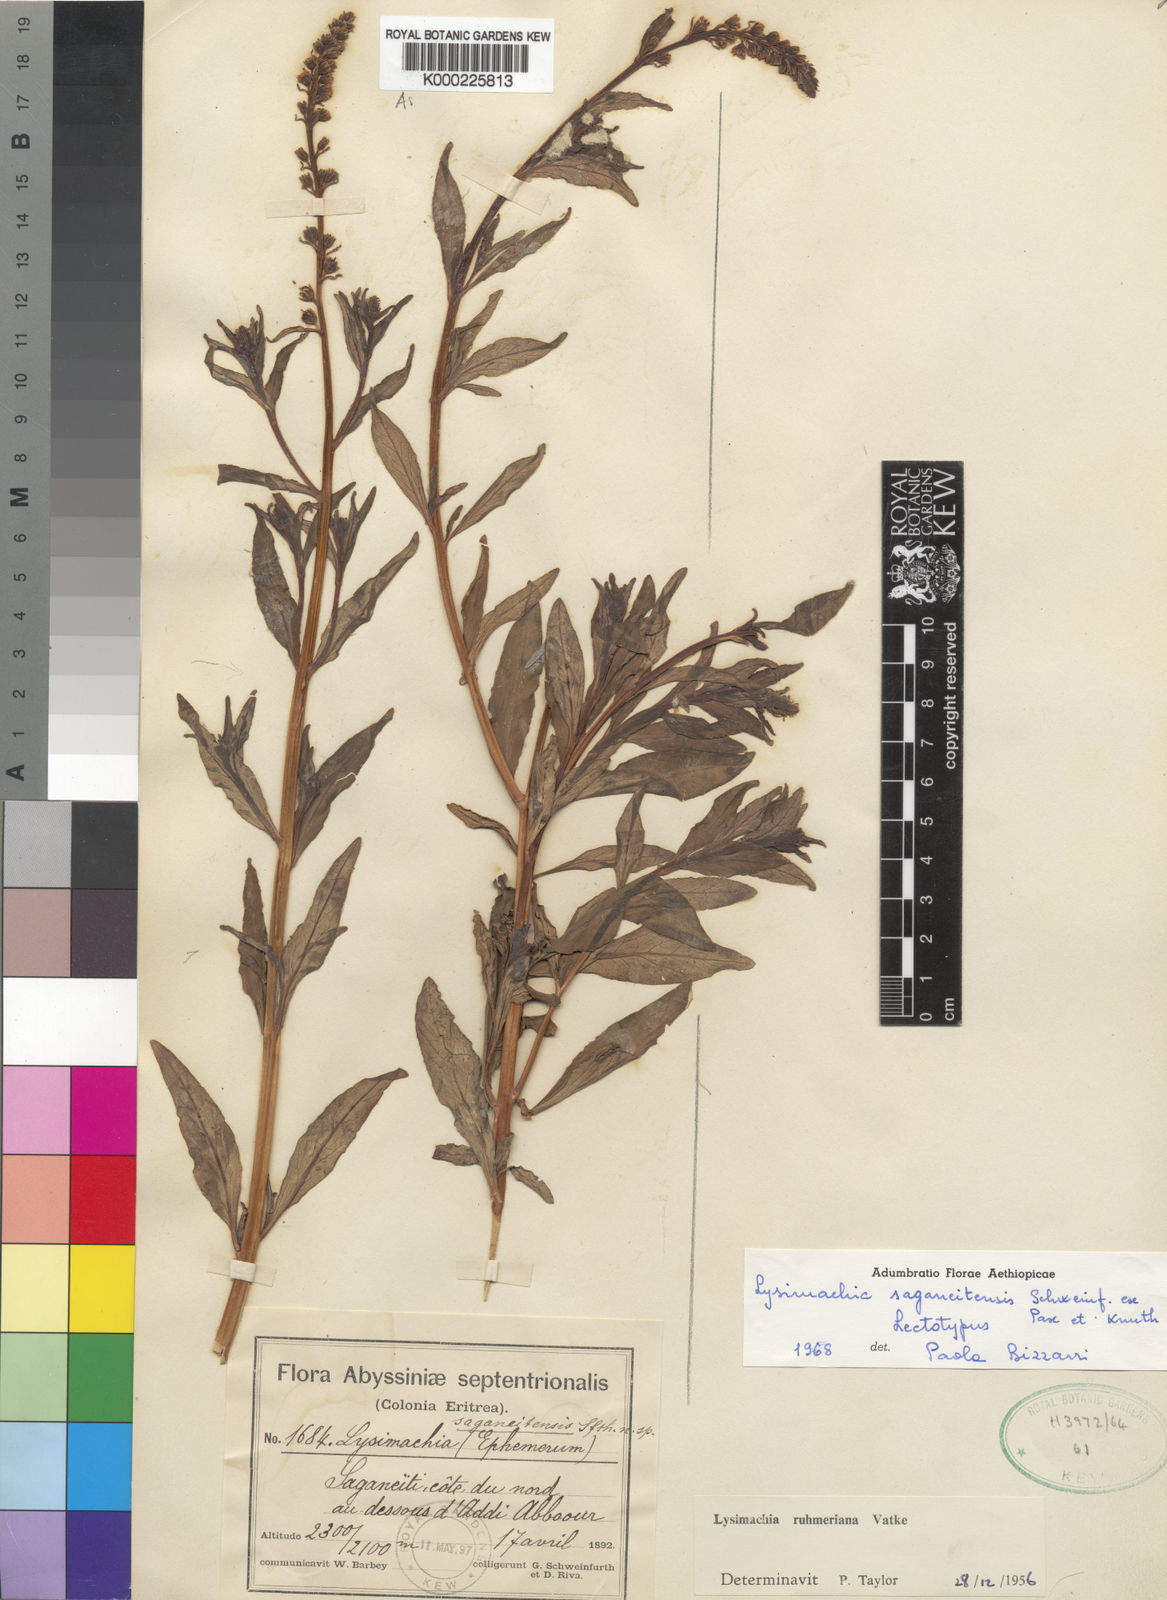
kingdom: Plantae
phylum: Tracheophyta
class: Magnoliopsida
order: Ericales
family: Primulaceae
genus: Lysimachia
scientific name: Lysimachia ruhmeriana
